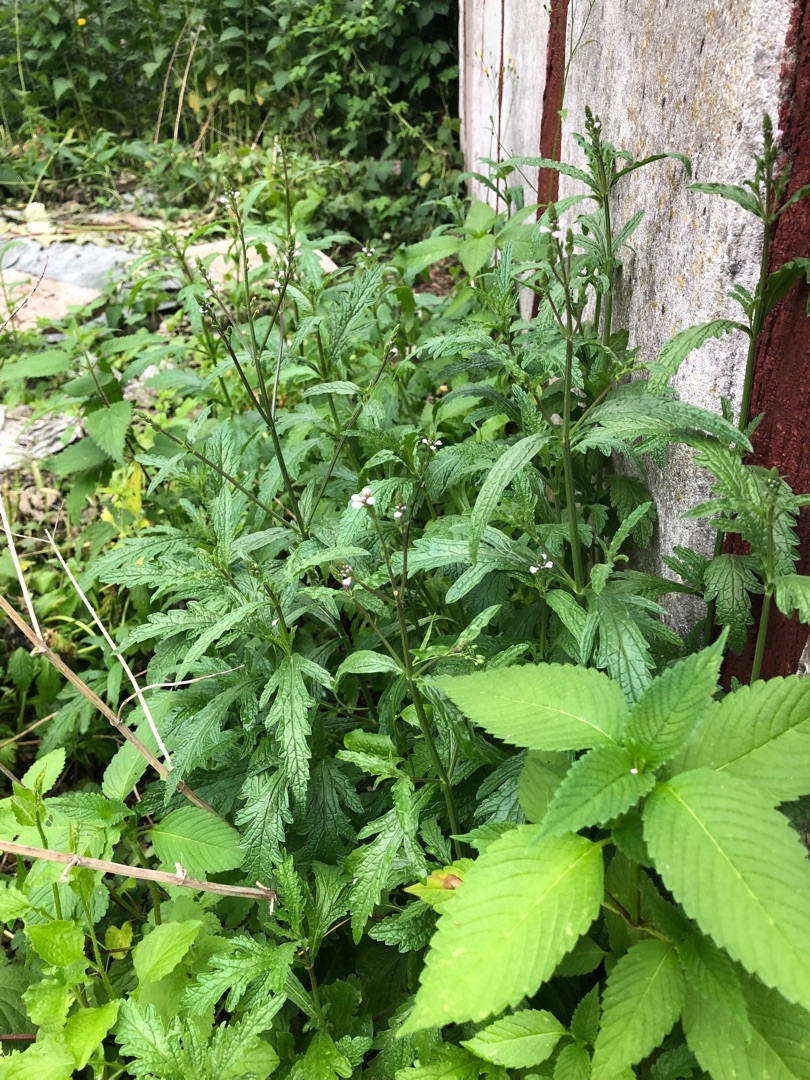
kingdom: Plantae
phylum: Tracheophyta
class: Magnoliopsida
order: Lamiales
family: Verbenaceae
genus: Verbena
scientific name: Verbena officinalis
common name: Læge-jernurt
